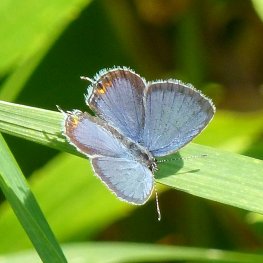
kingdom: Animalia
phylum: Arthropoda
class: Insecta
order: Lepidoptera
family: Lycaenidae
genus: Elkalyce
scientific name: Elkalyce comyntas
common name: Eastern Tailed-Blue
